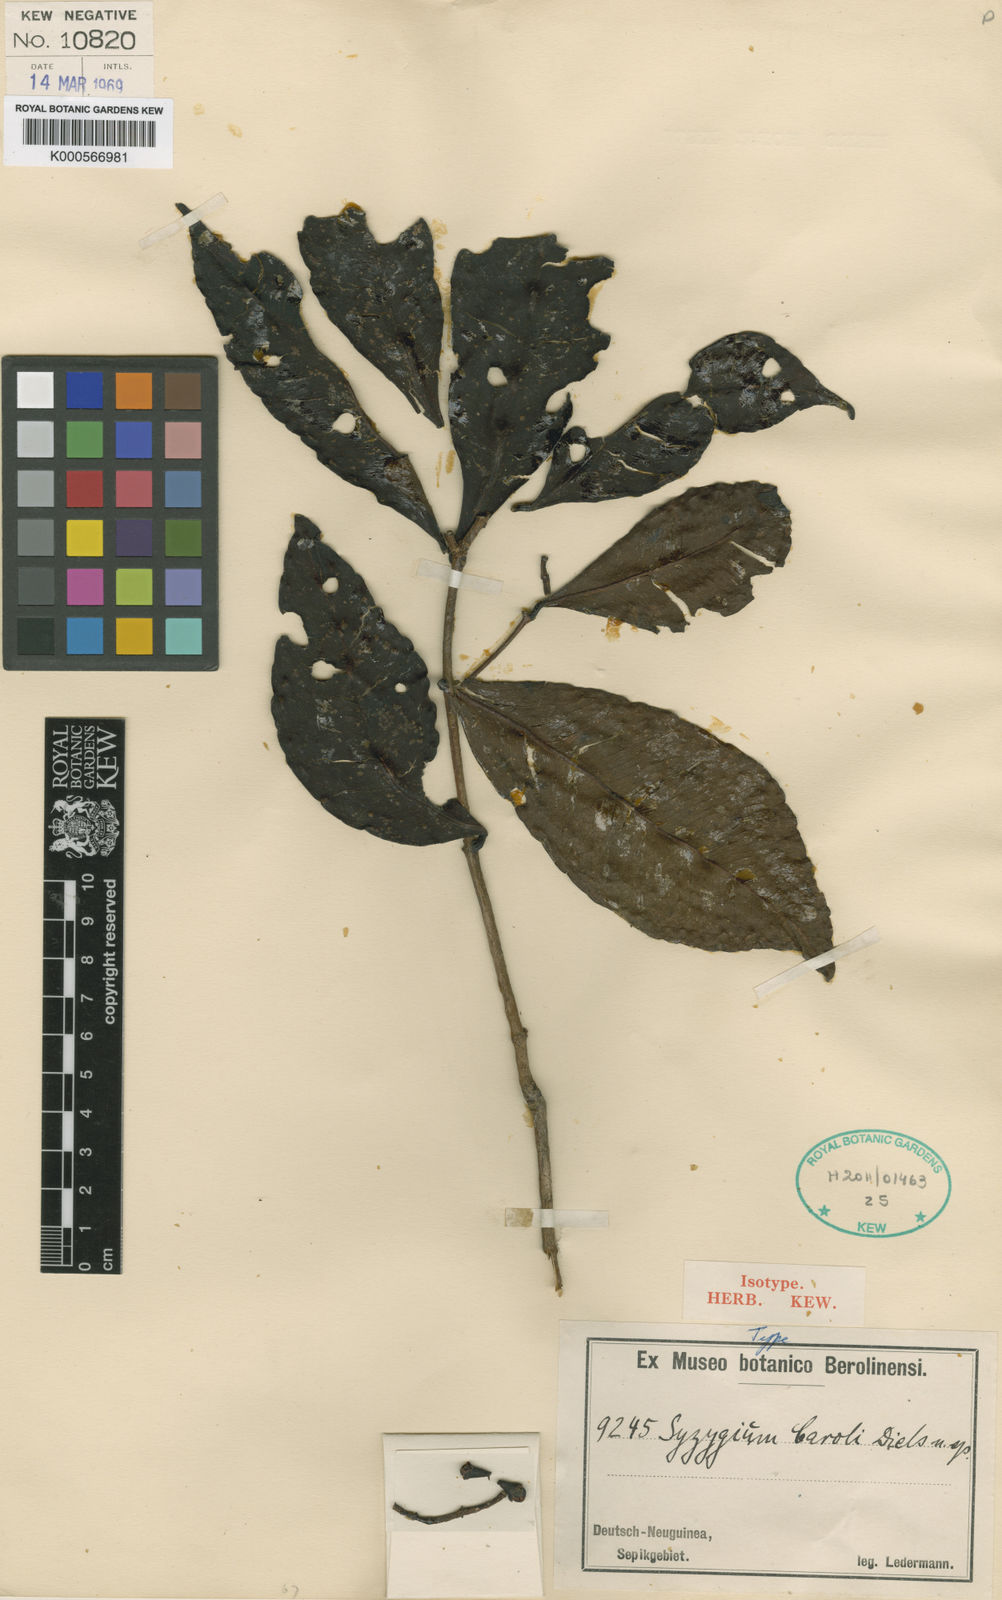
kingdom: Plantae
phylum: Tracheophyta
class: Magnoliopsida
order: Myrtales
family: Myrtaceae
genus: Syzygium
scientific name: Syzygium caroli
